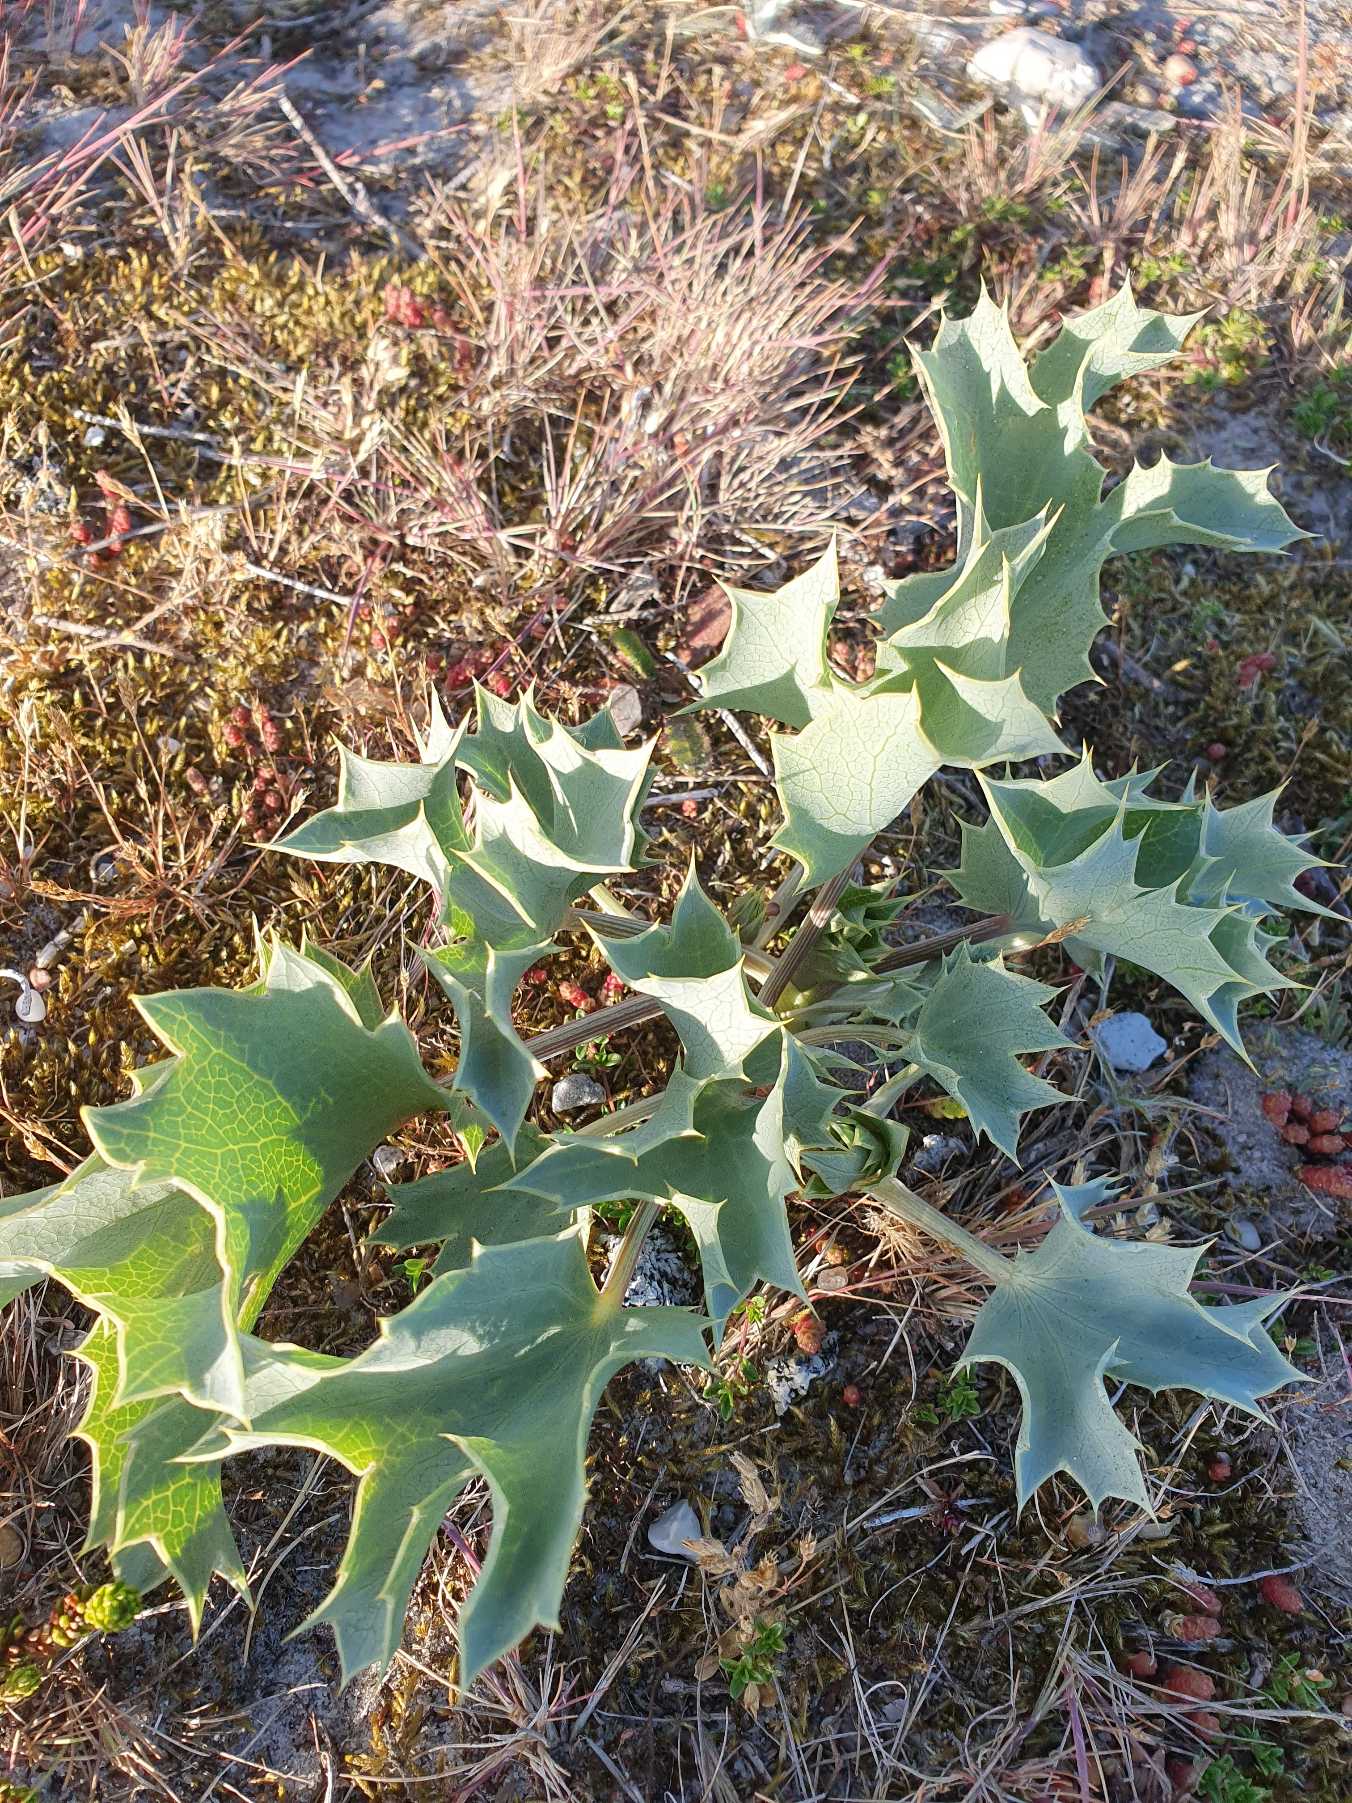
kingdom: Plantae
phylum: Tracheophyta
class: Magnoliopsida
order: Apiales
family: Apiaceae
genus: Eryngium
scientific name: Eryngium maritimum
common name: Strand-mandstro
